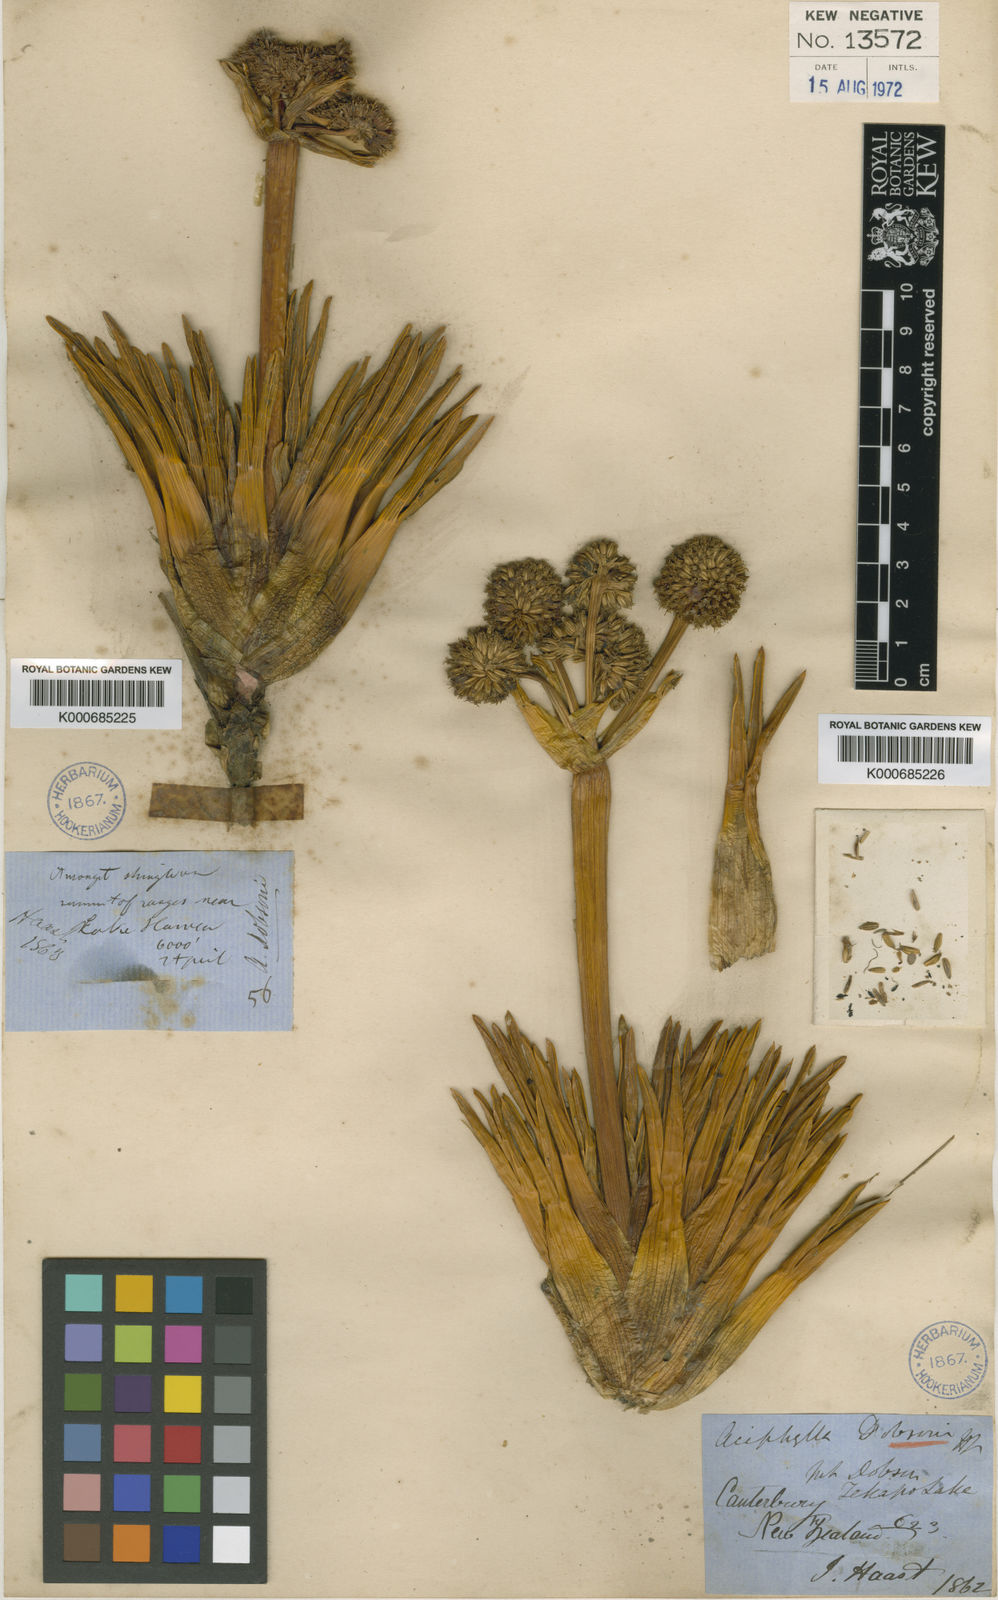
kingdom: Plantae
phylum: Tracheophyta
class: Magnoliopsida
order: Apiales
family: Apiaceae
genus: Aciphylla
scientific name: Aciphylla dobsonii
